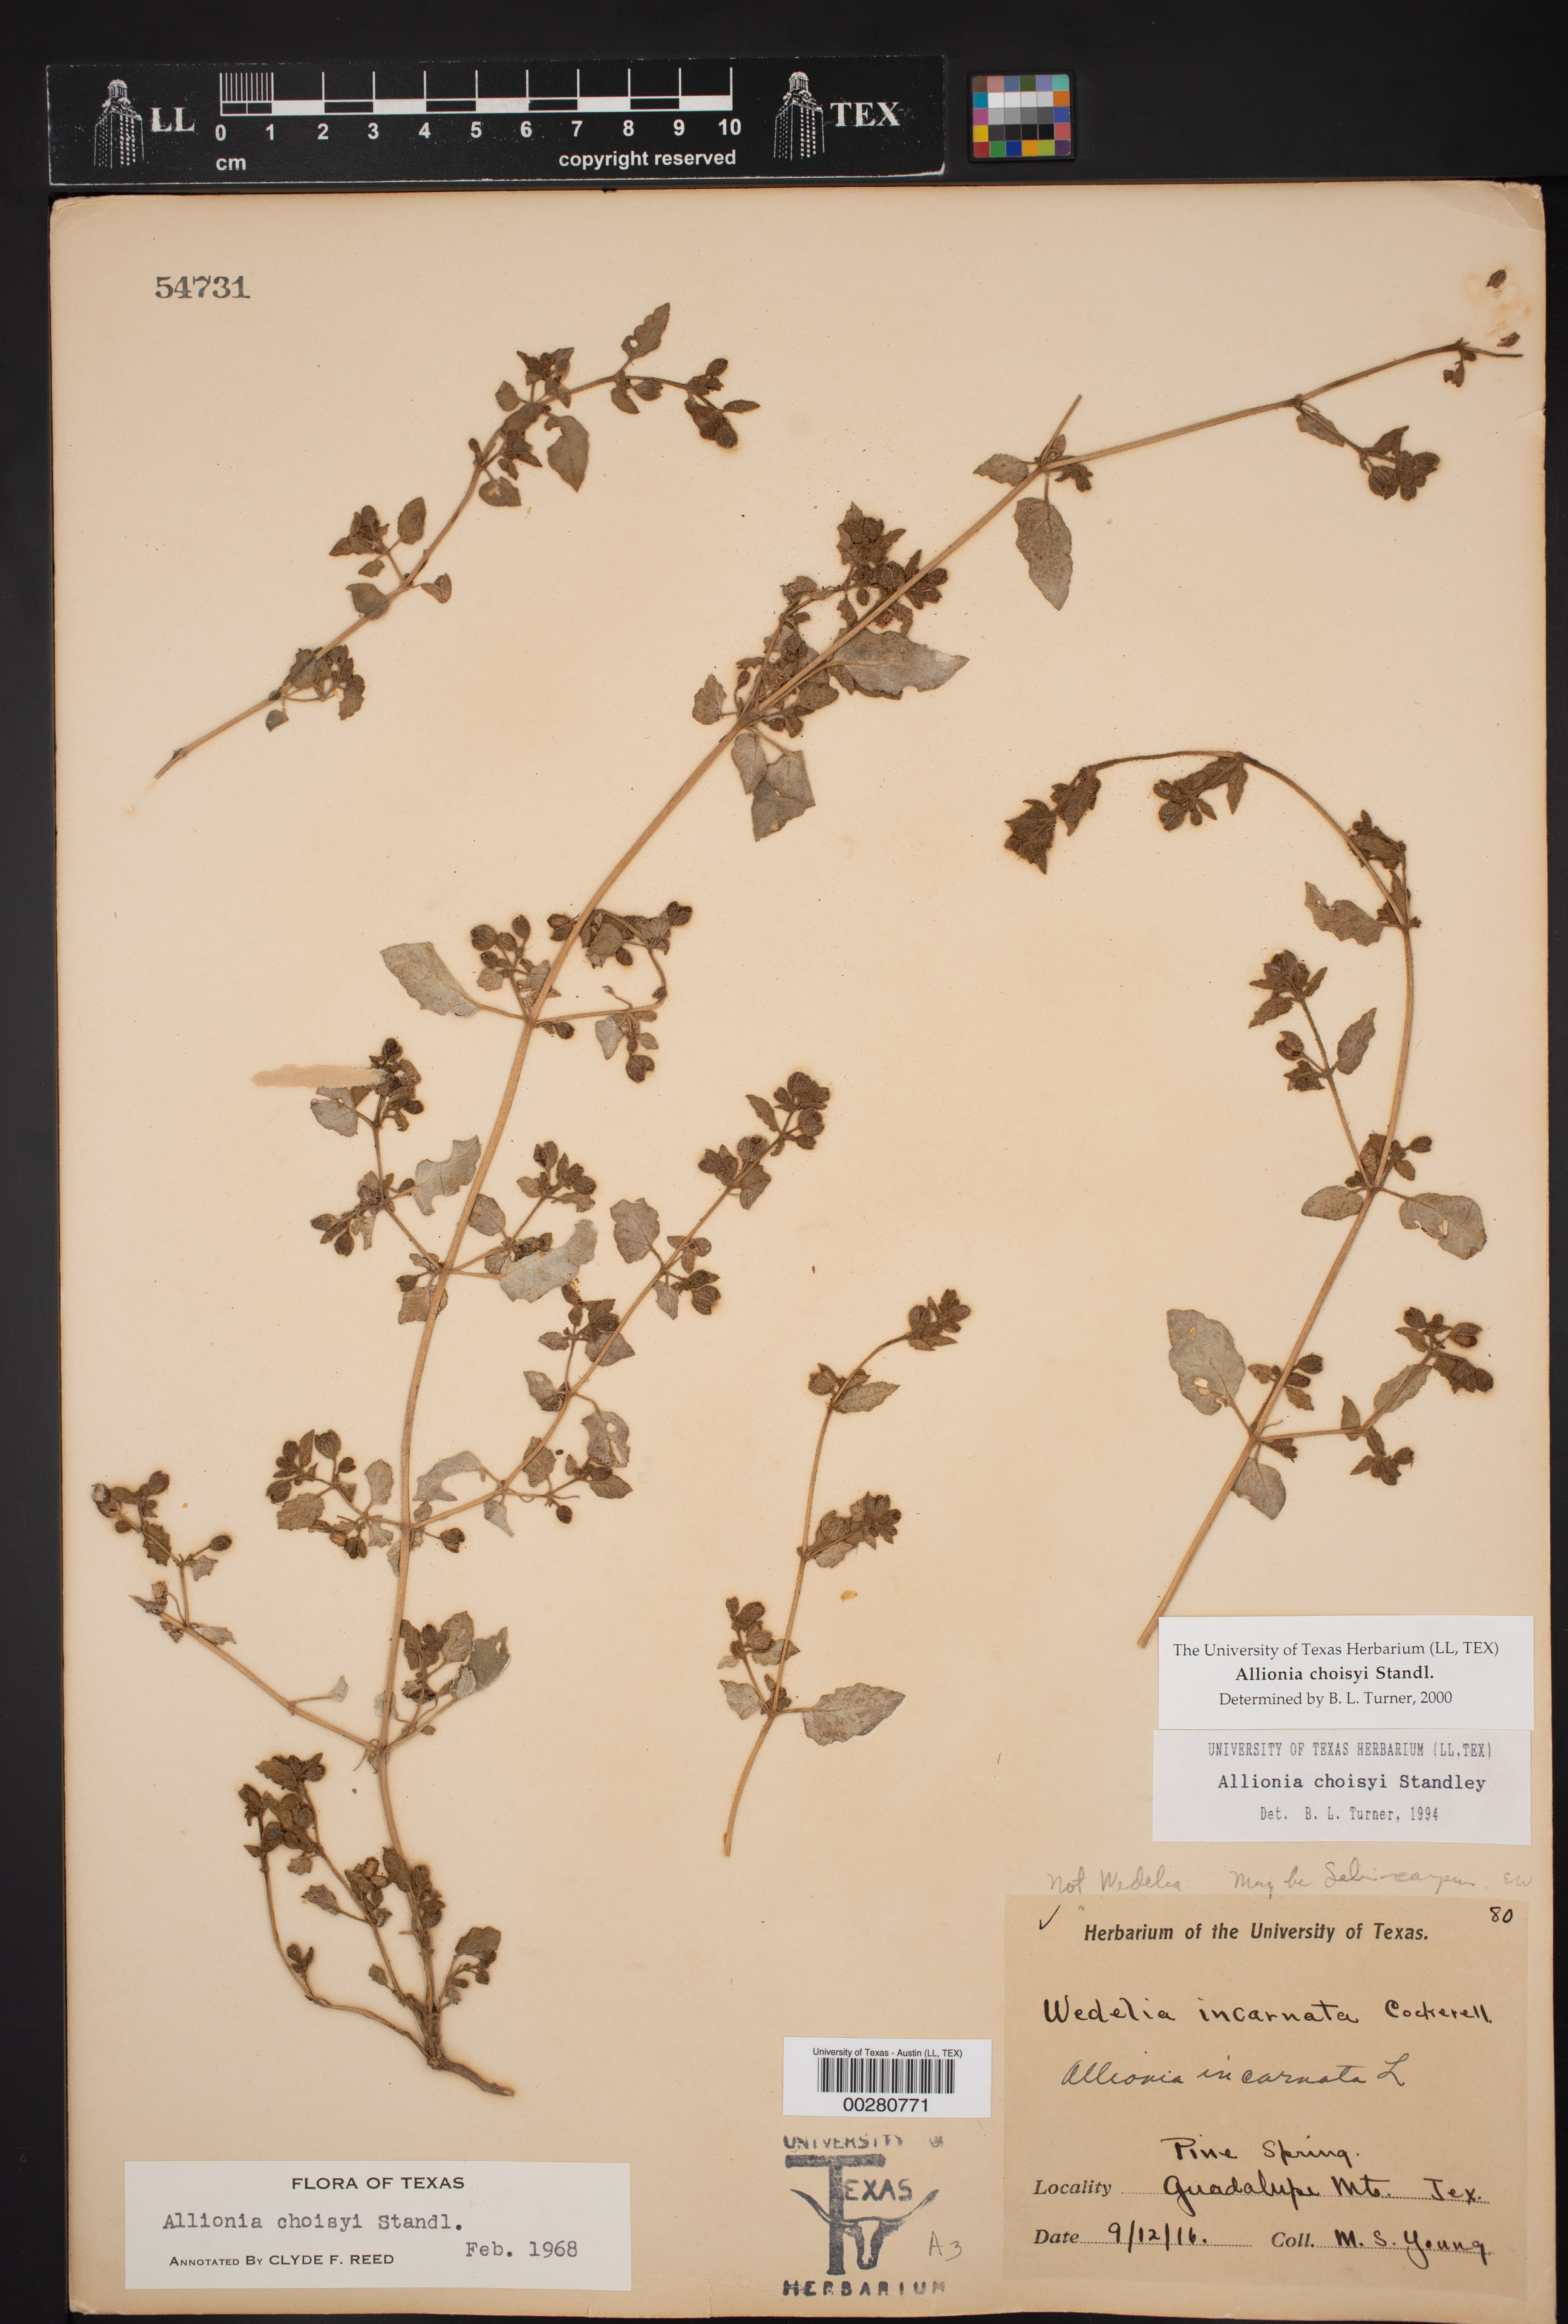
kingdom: Plantae
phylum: Tracheophyta
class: Magnoliopsida
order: Caryophyllales
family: Nyctaginaceae
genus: Allionia
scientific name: Allionia choisyi
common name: Trailing-four-o'clock
